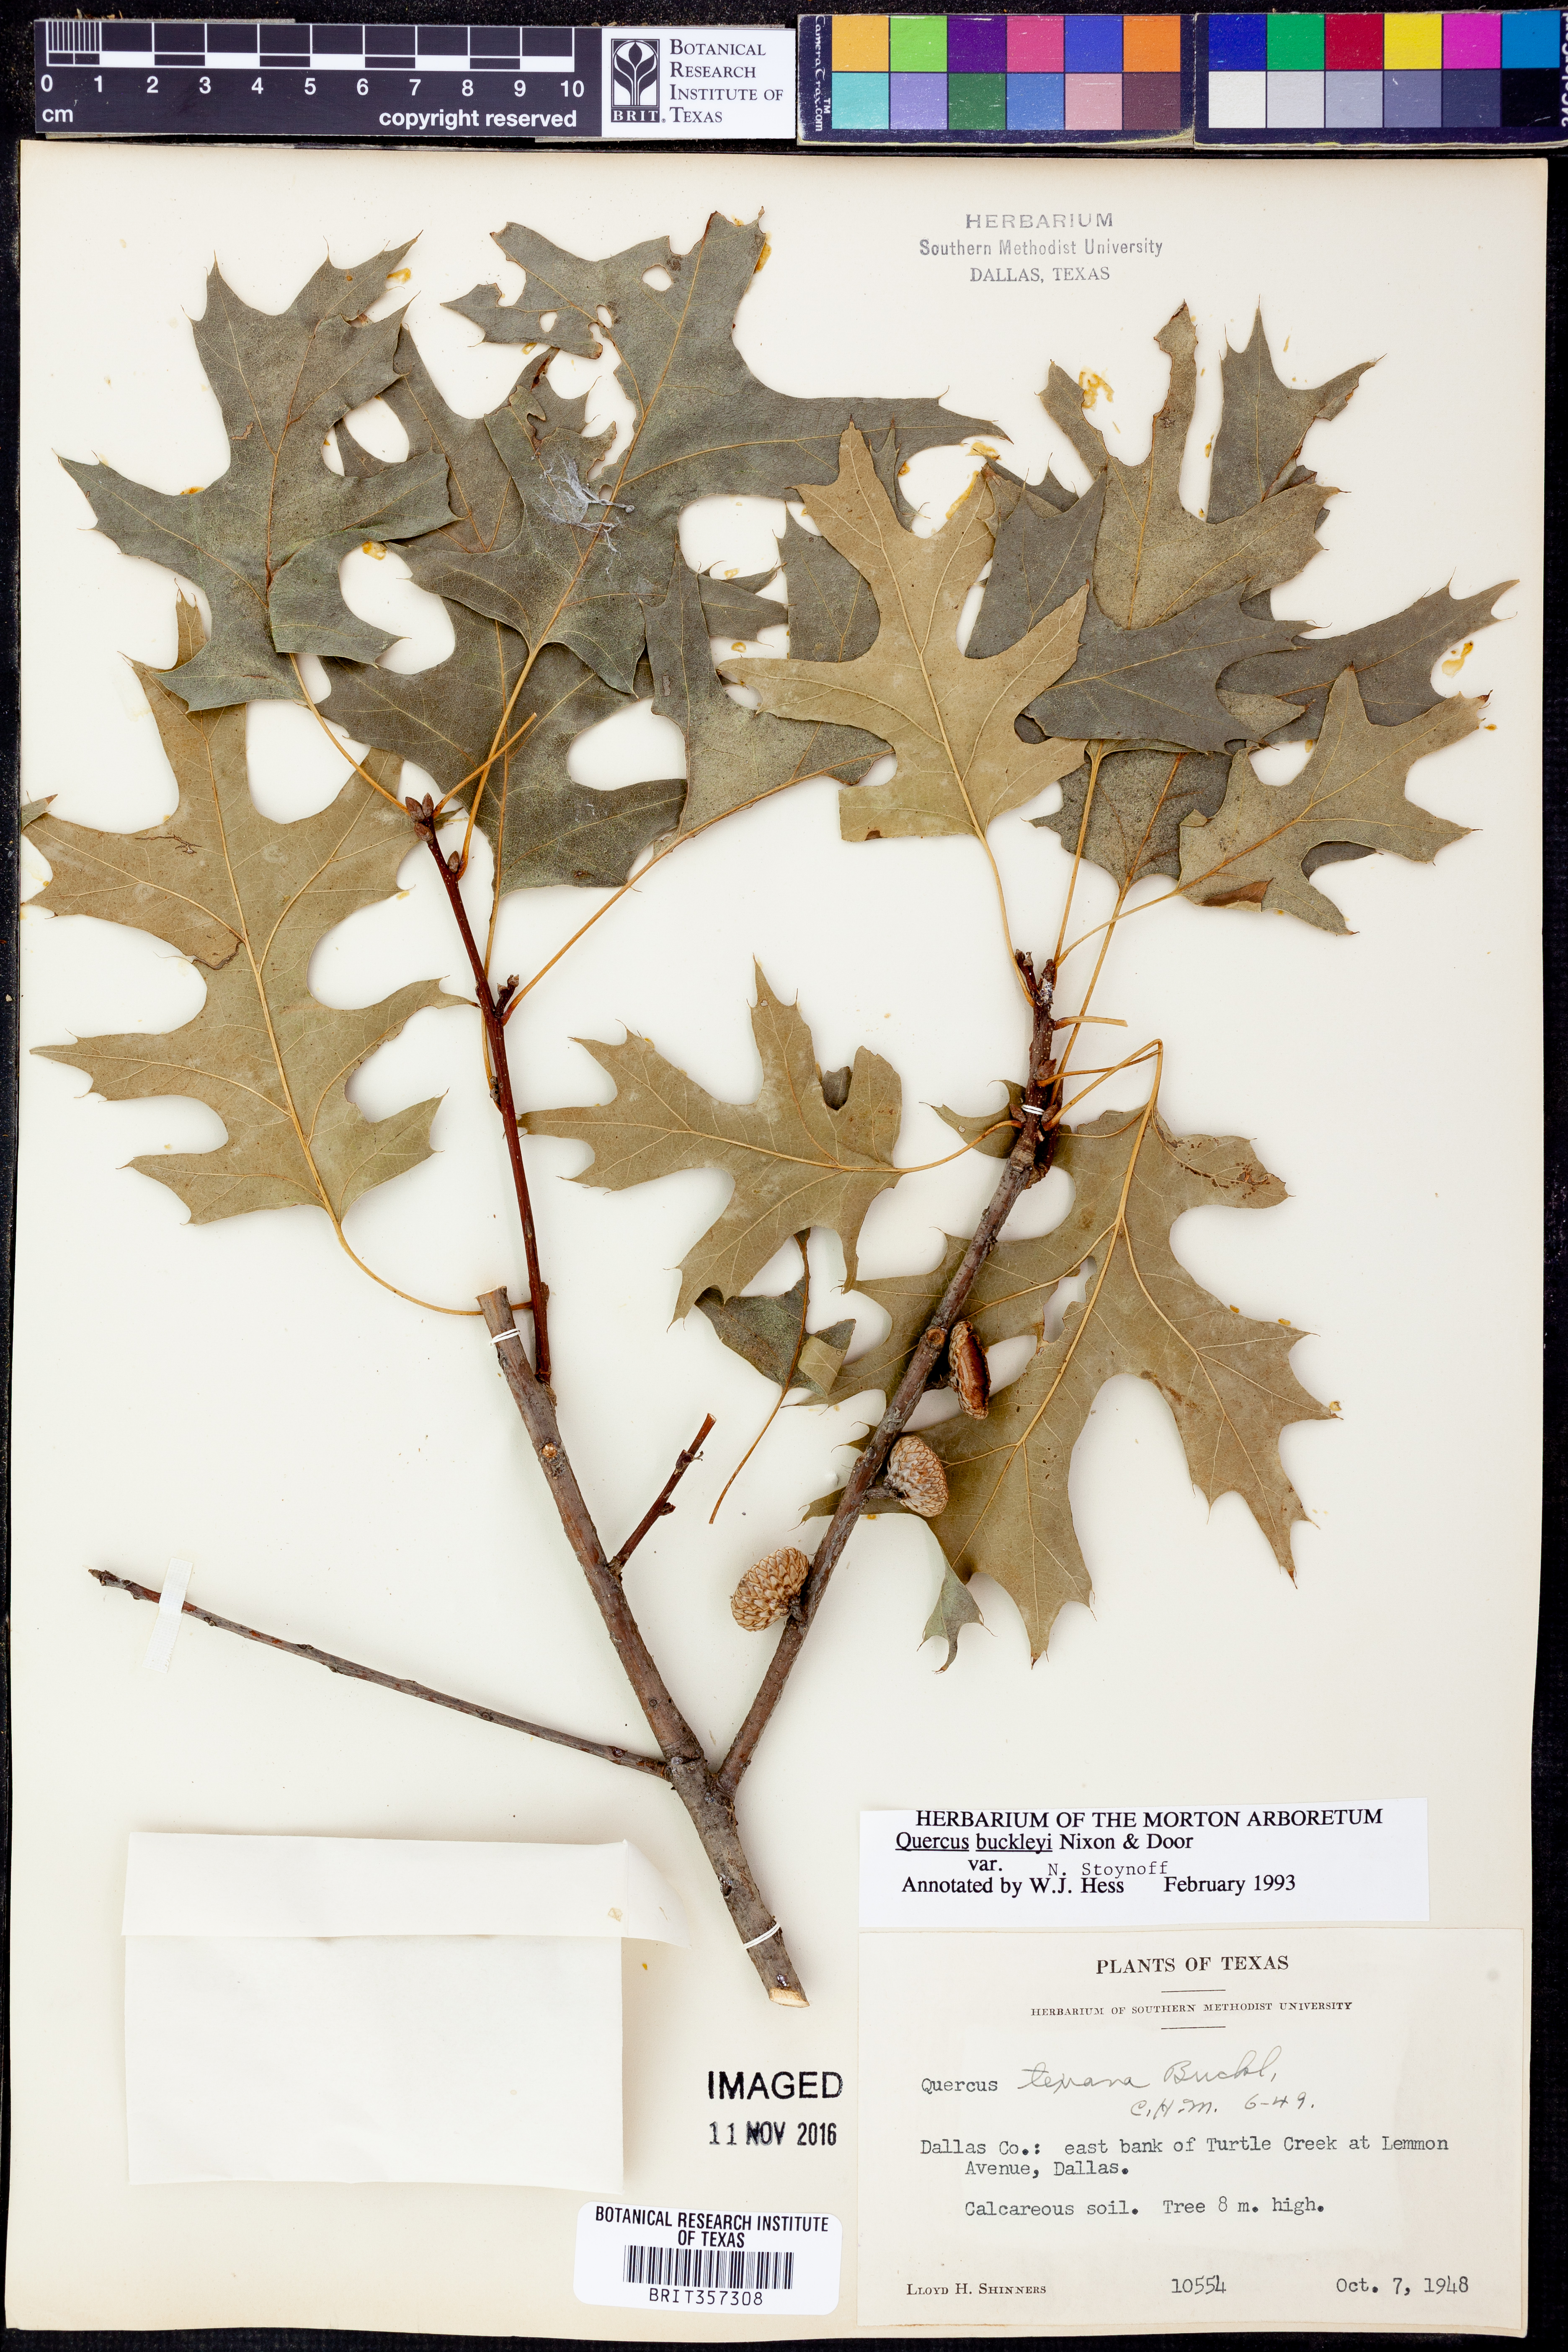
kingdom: Plantae
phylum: Tracheophyta
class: Magnoliopsida
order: Fagales
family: Fagaceae
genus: Quercus
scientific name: Quercus buckleyi
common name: Buckley oak
